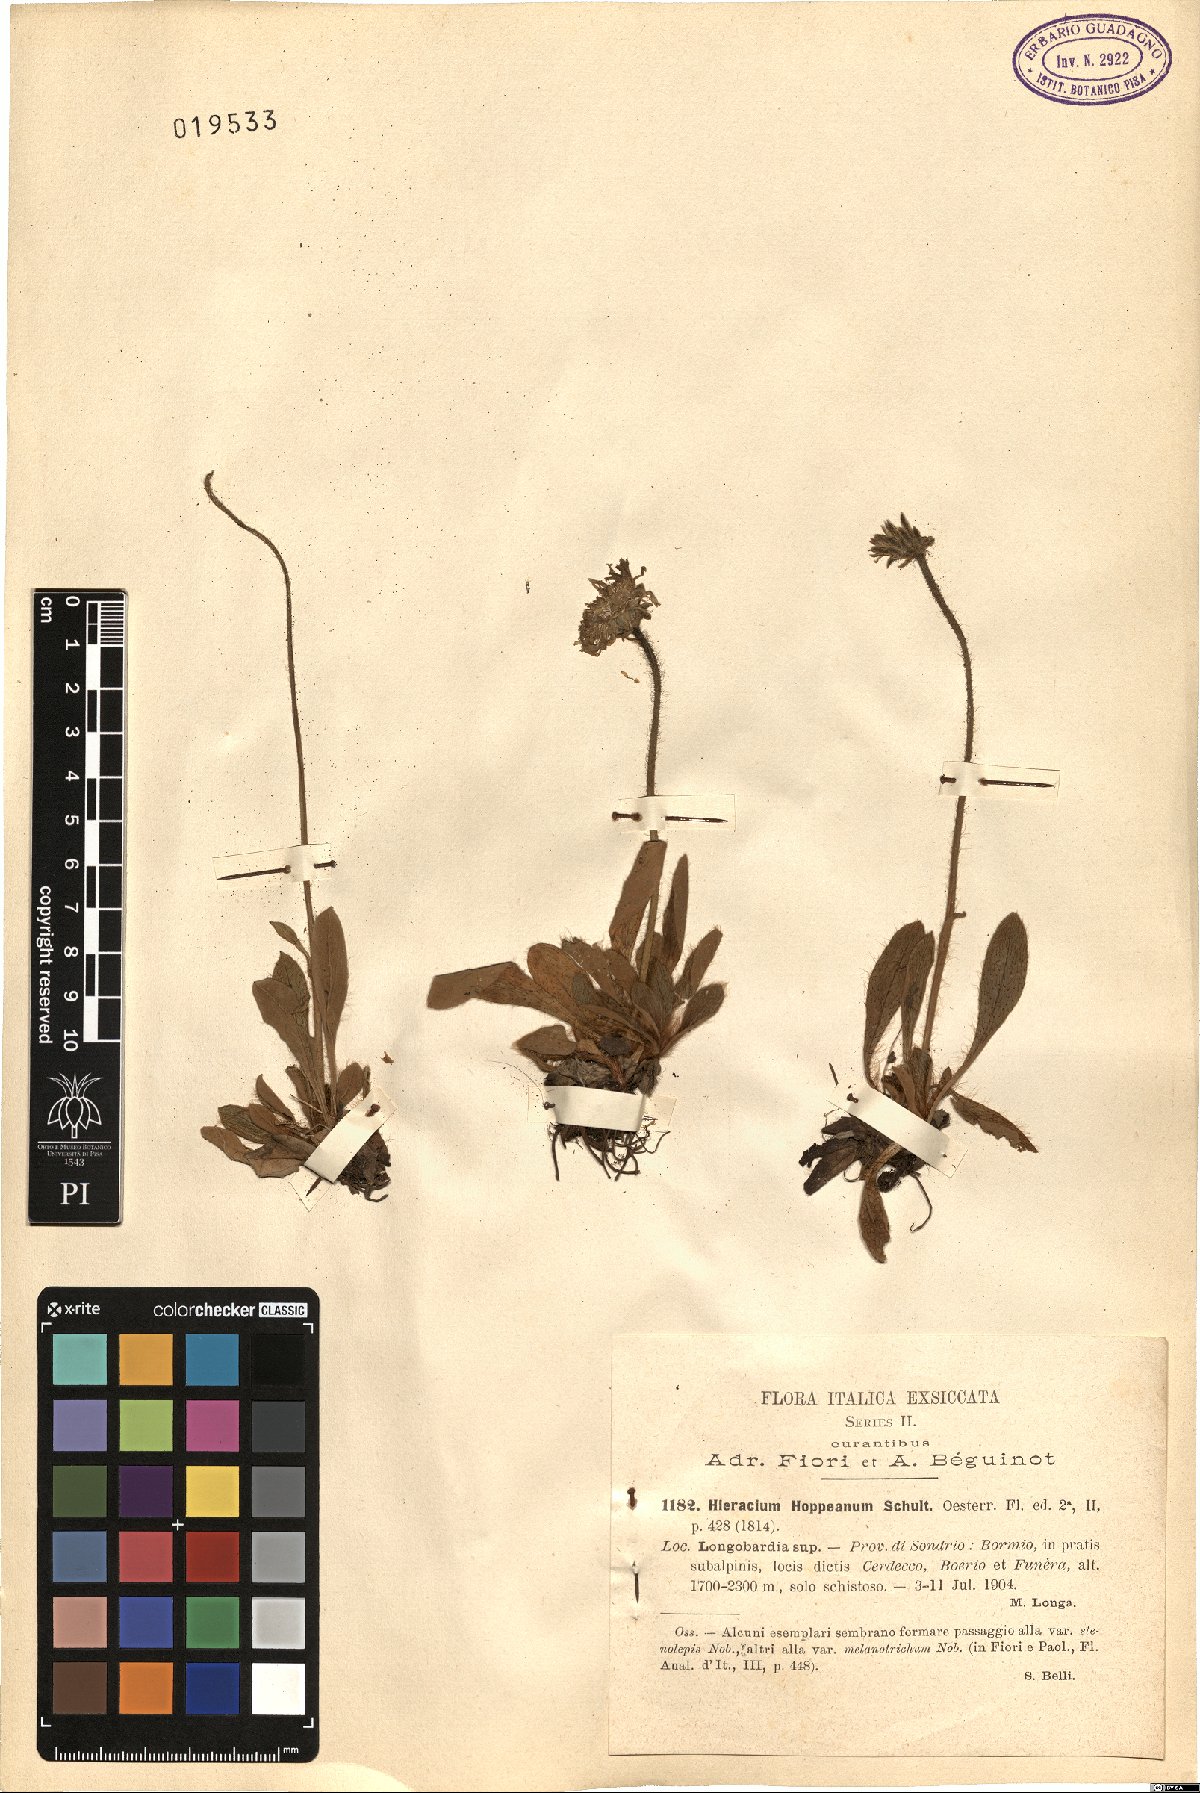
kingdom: Plantae
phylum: Tracheophyta
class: Magnoliopsida
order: Asterales
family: Asteraceae
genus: Pilosella
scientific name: Pilosella hoppeana
